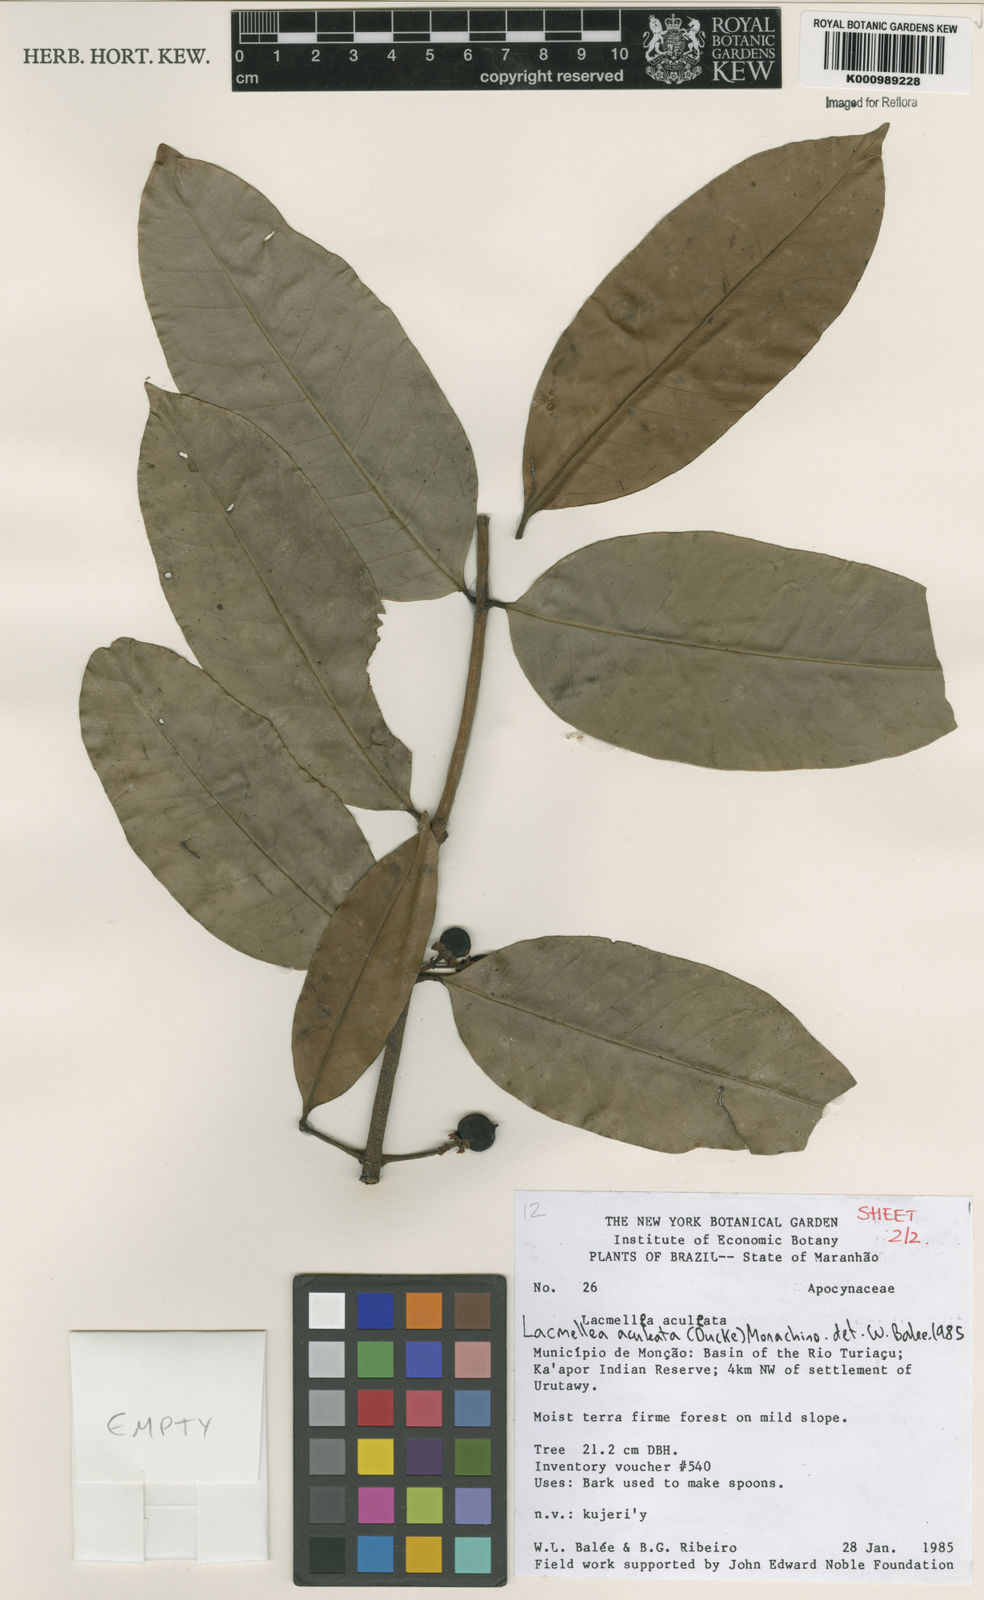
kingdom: Plantae
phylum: Tracheophyta
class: Magnoliopsida
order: Gentianales
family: Apocynaceae
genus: Lacmellea
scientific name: Lacmellea aculeata
